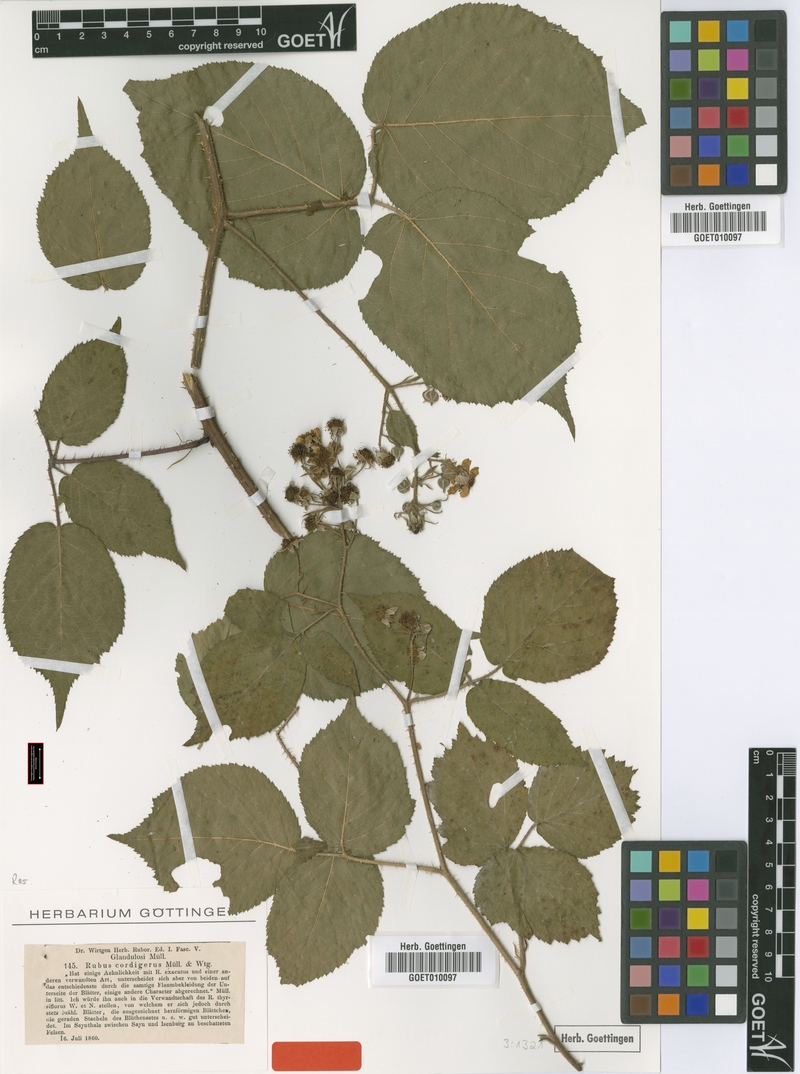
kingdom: Plantae
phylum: Tracheophyta
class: Magnoliopsida
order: Rosales
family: Rosaceae
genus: Rubus
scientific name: Rubus rivularis
